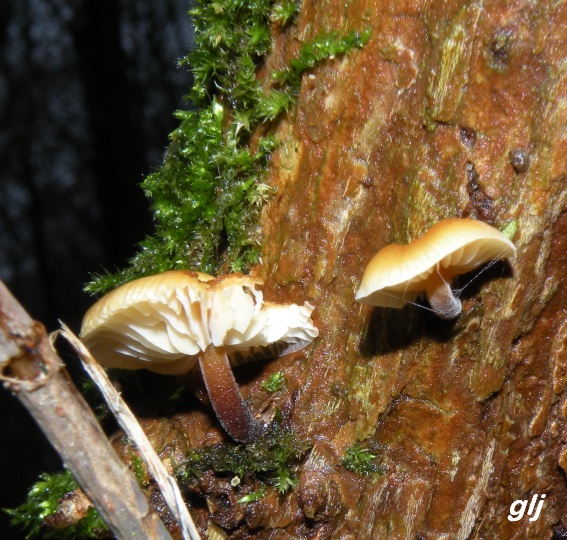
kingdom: Fungi
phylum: Basidiomycota
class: Agaricomycetes
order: Agaricales
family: Physalacriaceae
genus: Flammulina
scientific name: Flammulina velutipes
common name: gul fløjlsfod
